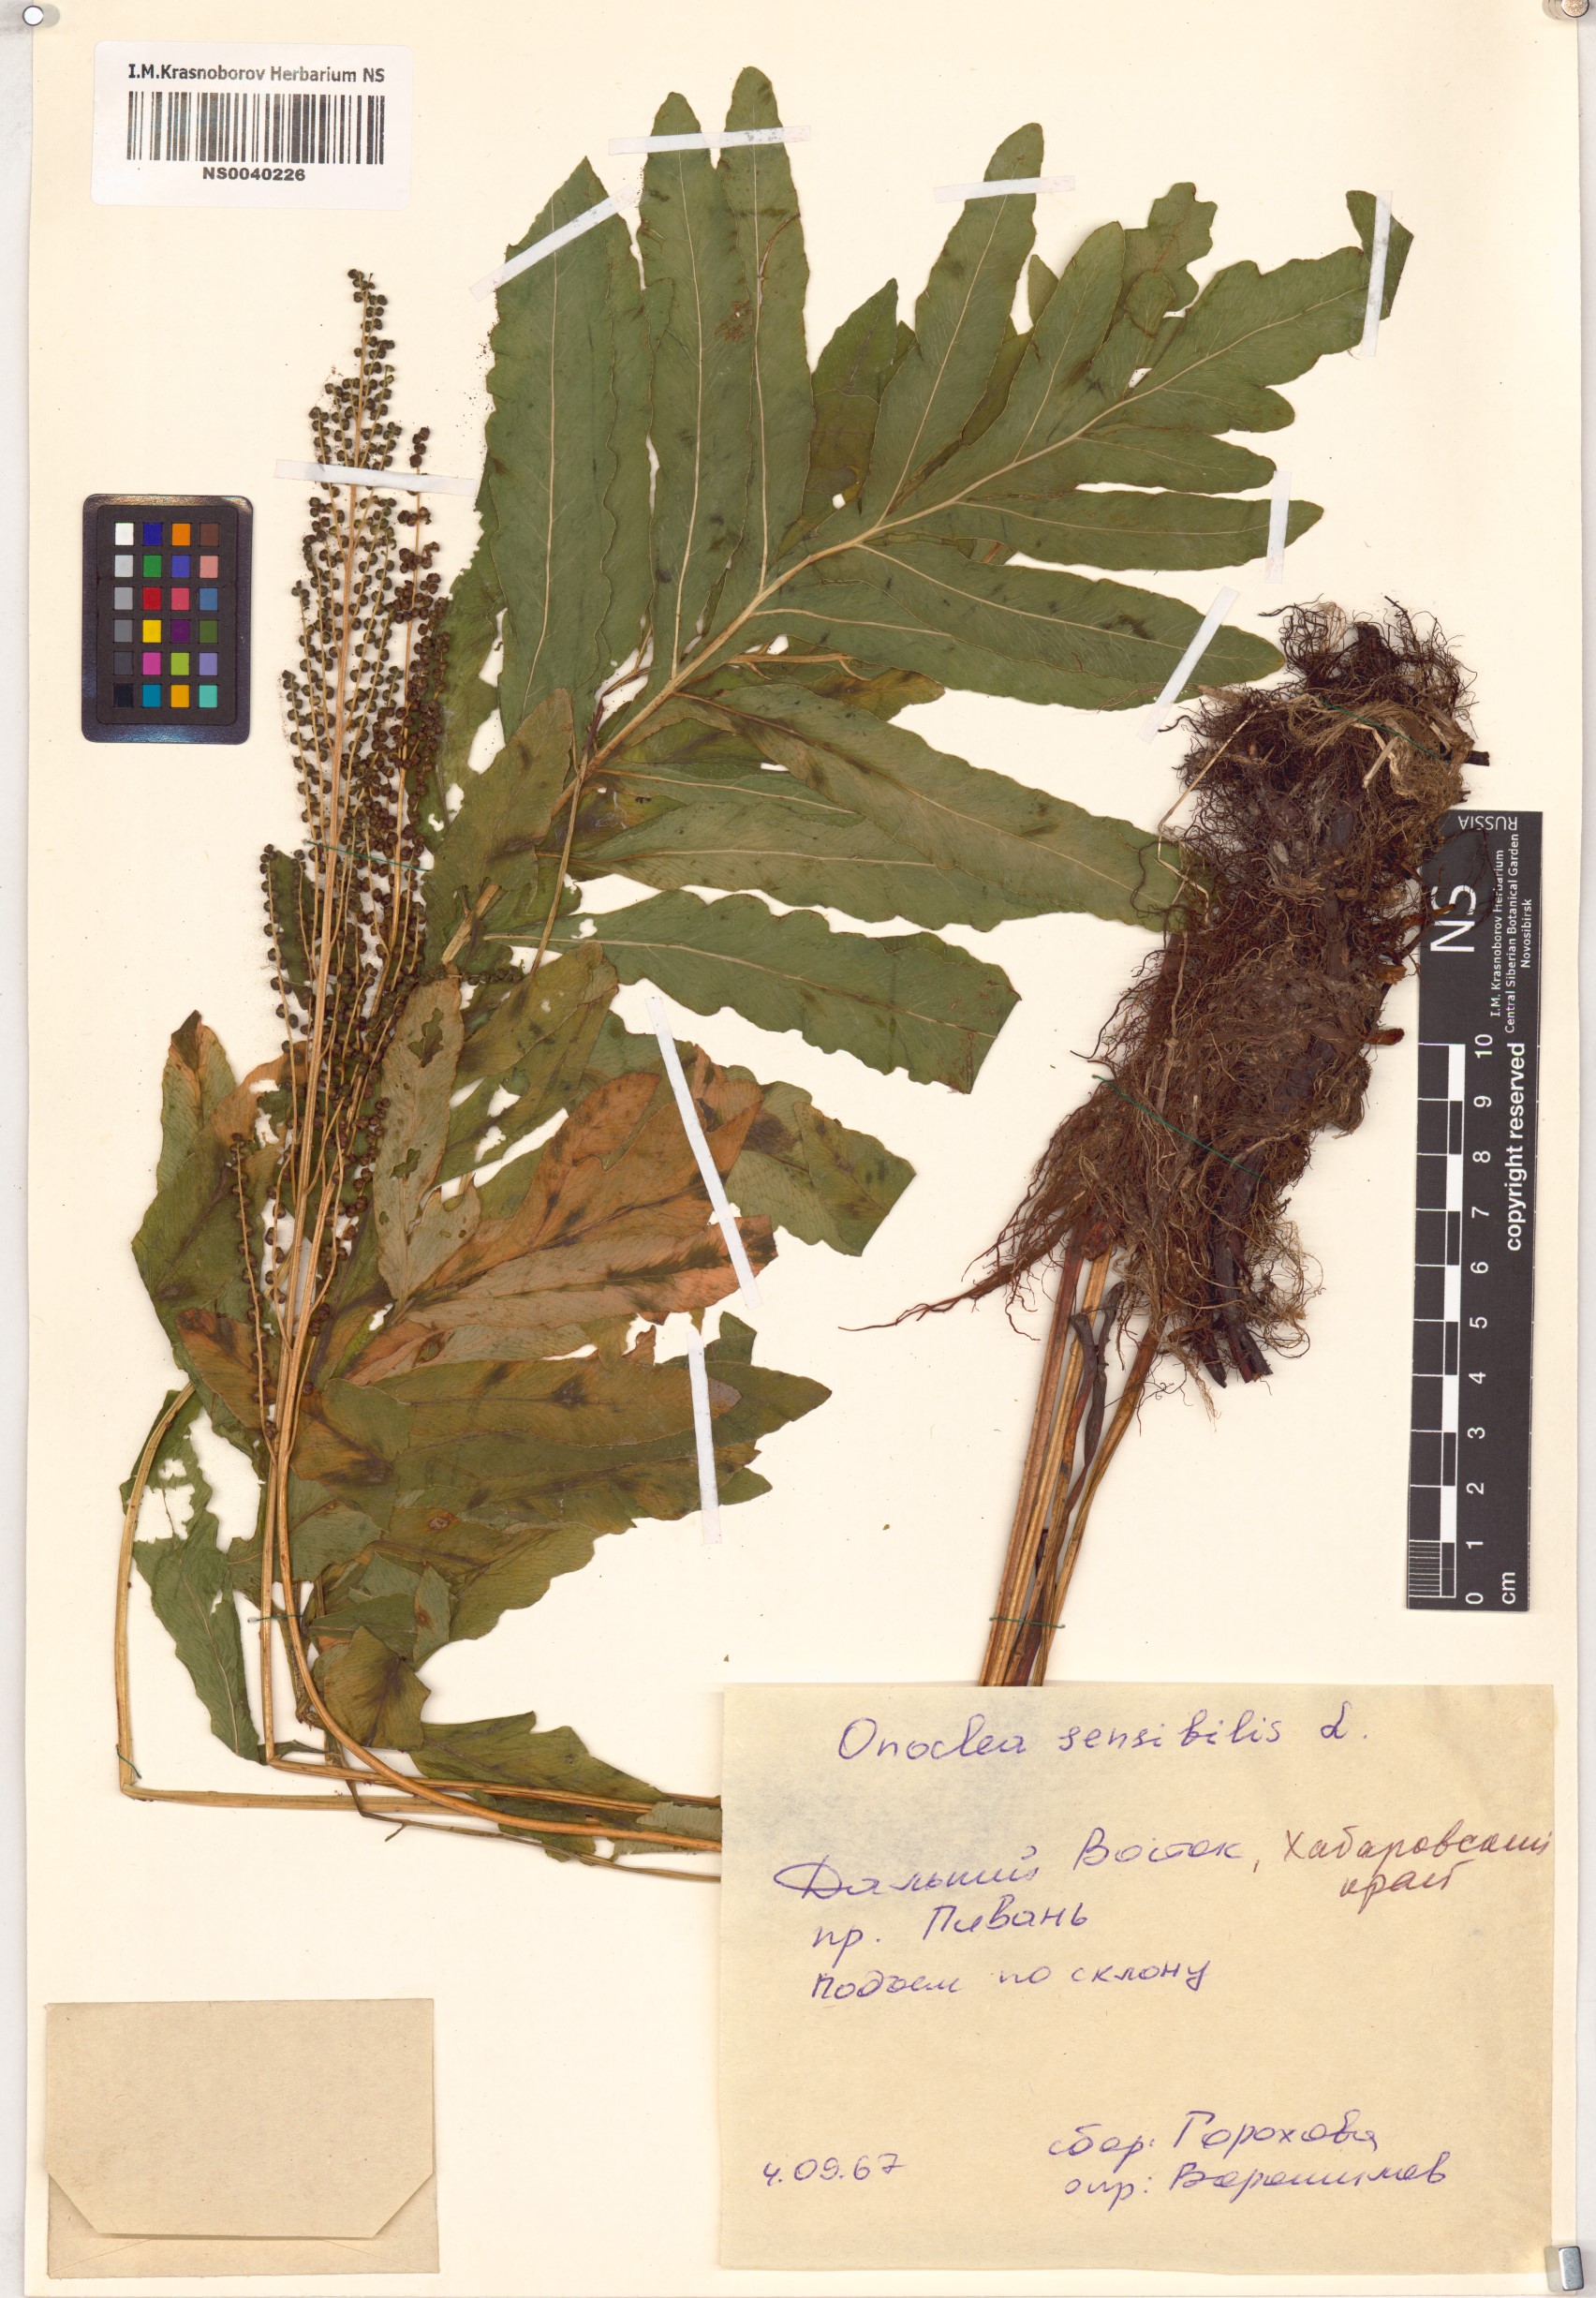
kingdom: Plantae
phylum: Tracheophyta
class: Polypodiopsida
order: Polypodiales
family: Onocleaceae
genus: Onoclea
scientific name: Onoclea sensibilis
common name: Sensitive fern
